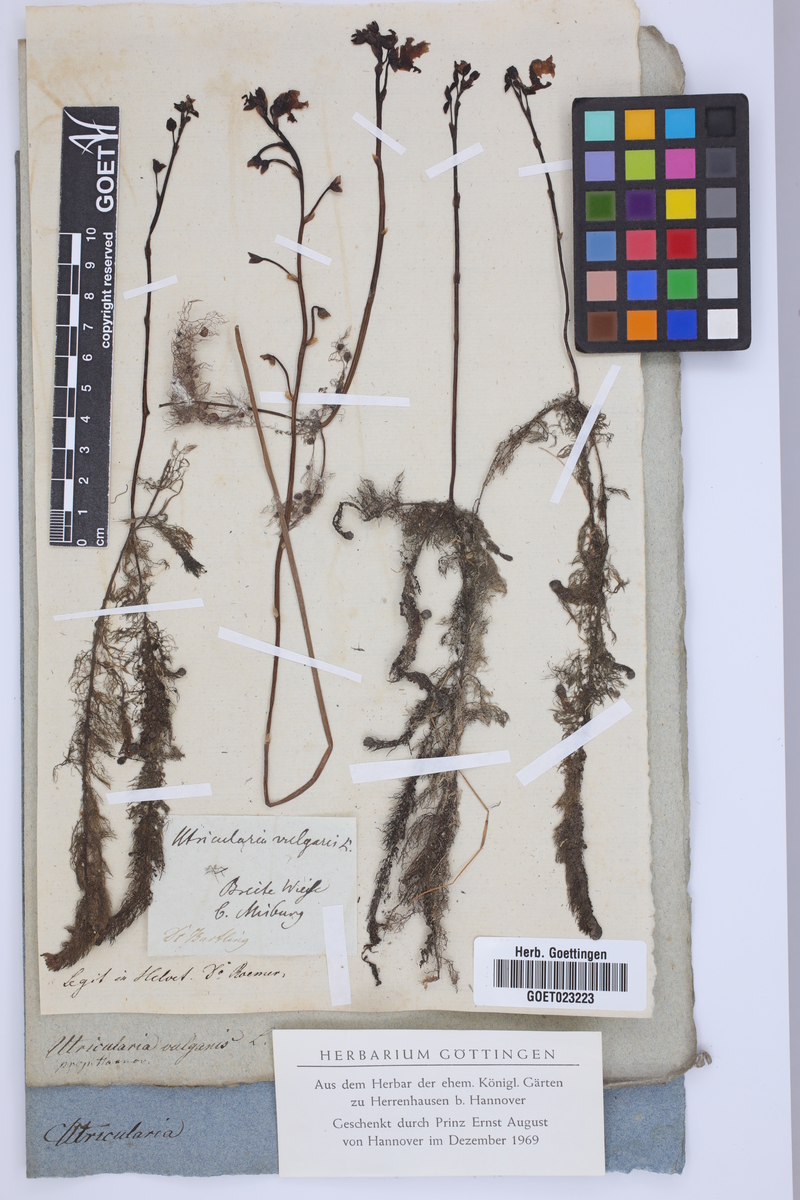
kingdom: Plantae
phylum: Tracheophyta
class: Magnoliopsida
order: Lamiales
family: Lentibulariaceae
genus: Utricularia
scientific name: Utricularia vulgaris
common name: Greater bladderwort
